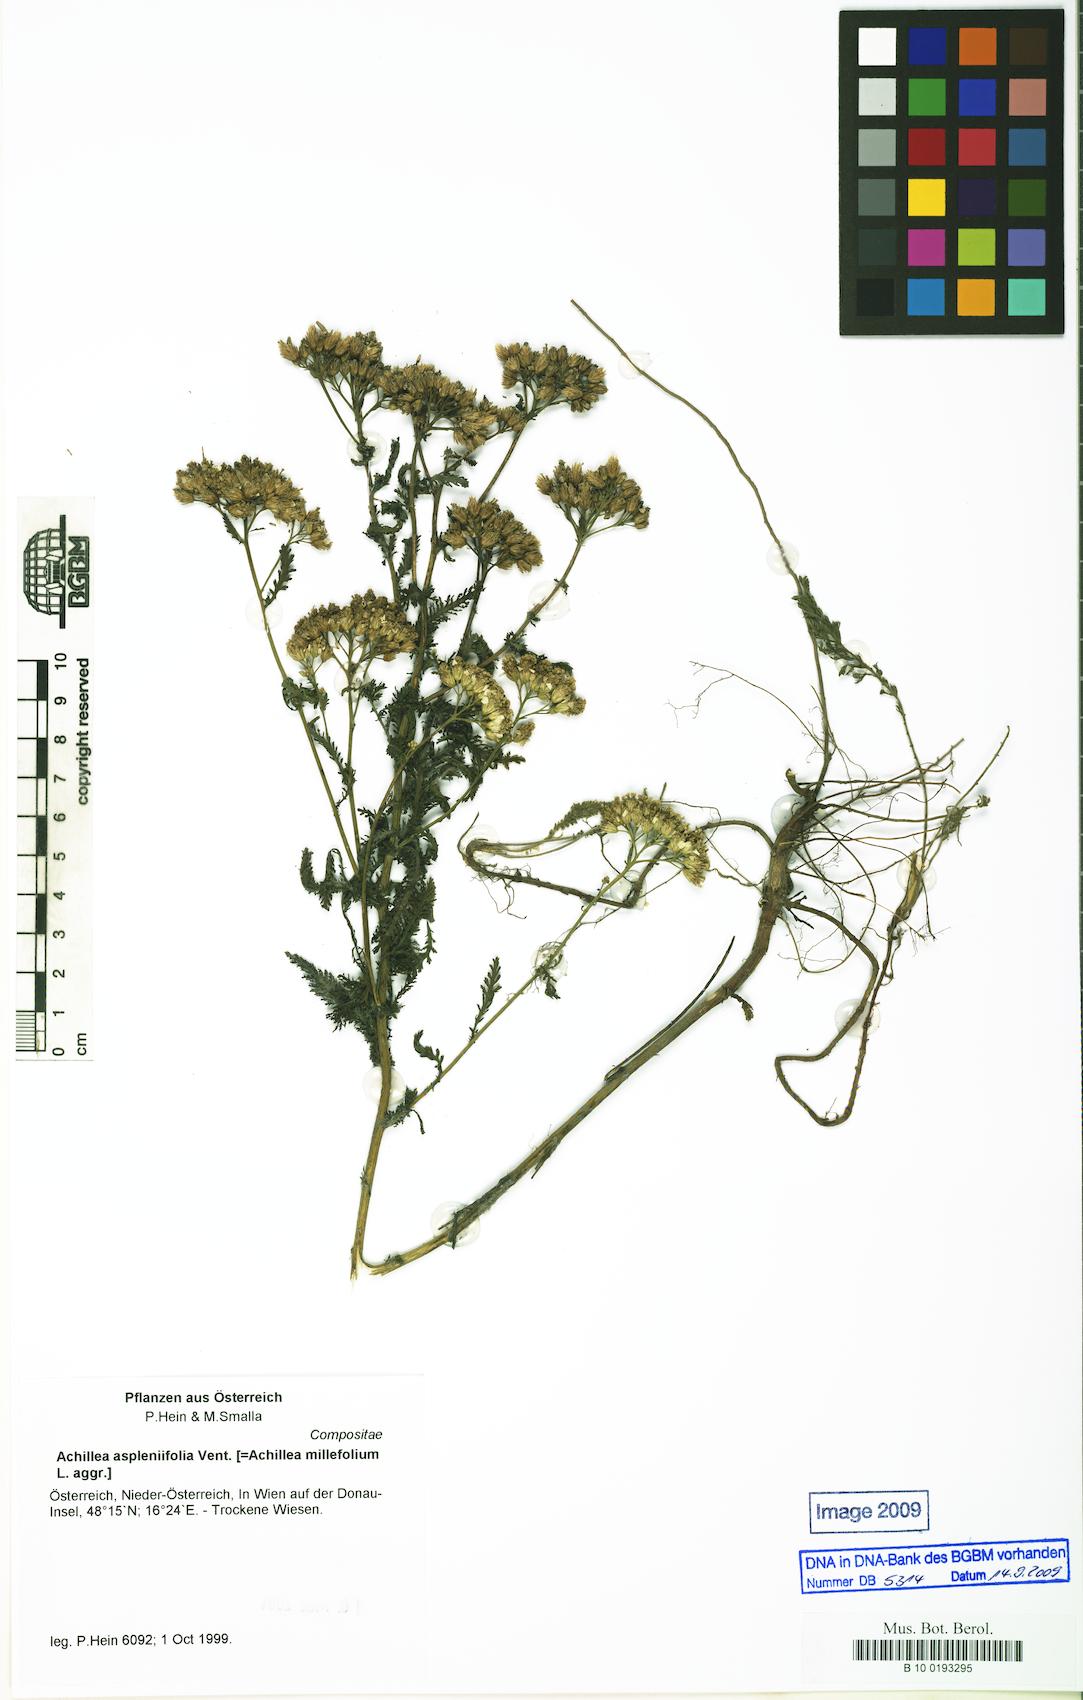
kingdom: Plantae
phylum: Tracheophyta
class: Magnoliopsida
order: Asterales
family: Asteraceae
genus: Achillea
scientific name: Achillea aspleniifolia
